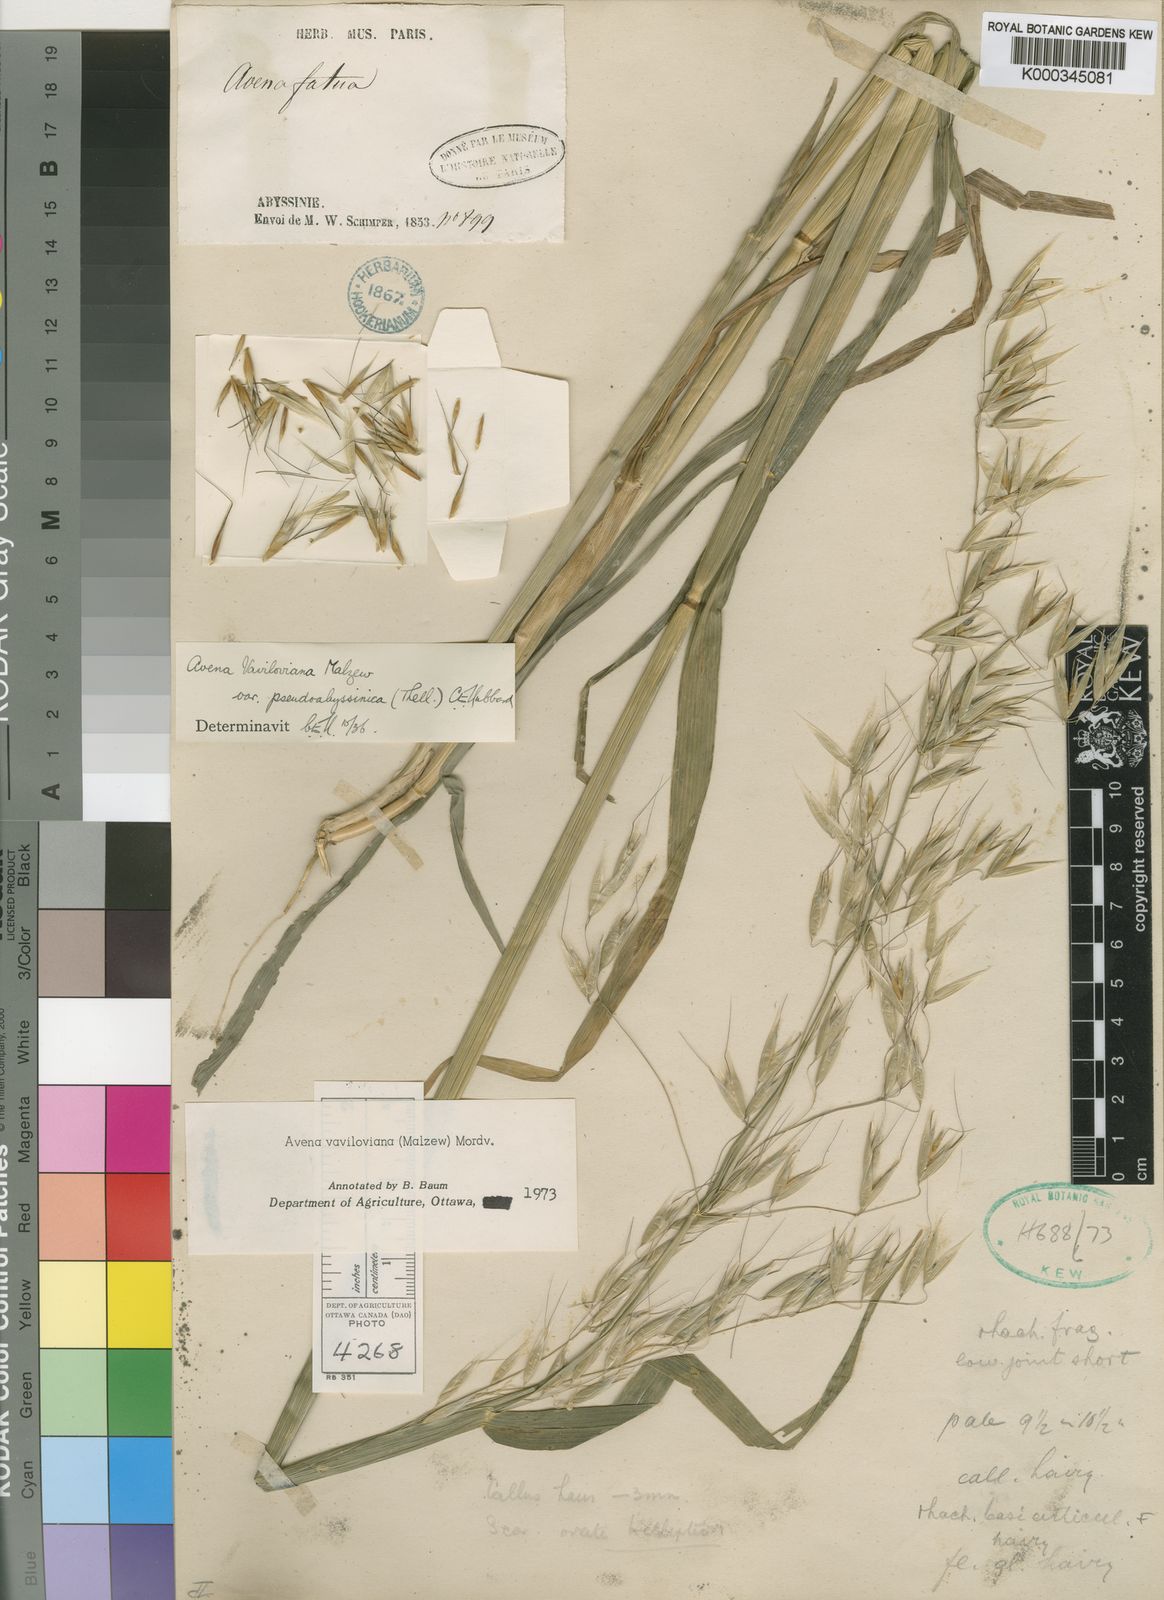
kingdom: Plantae
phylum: Tracheophyta
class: Liliopsida
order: Poales
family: Poaceae
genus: Avena
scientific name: Avena vaviloviana
